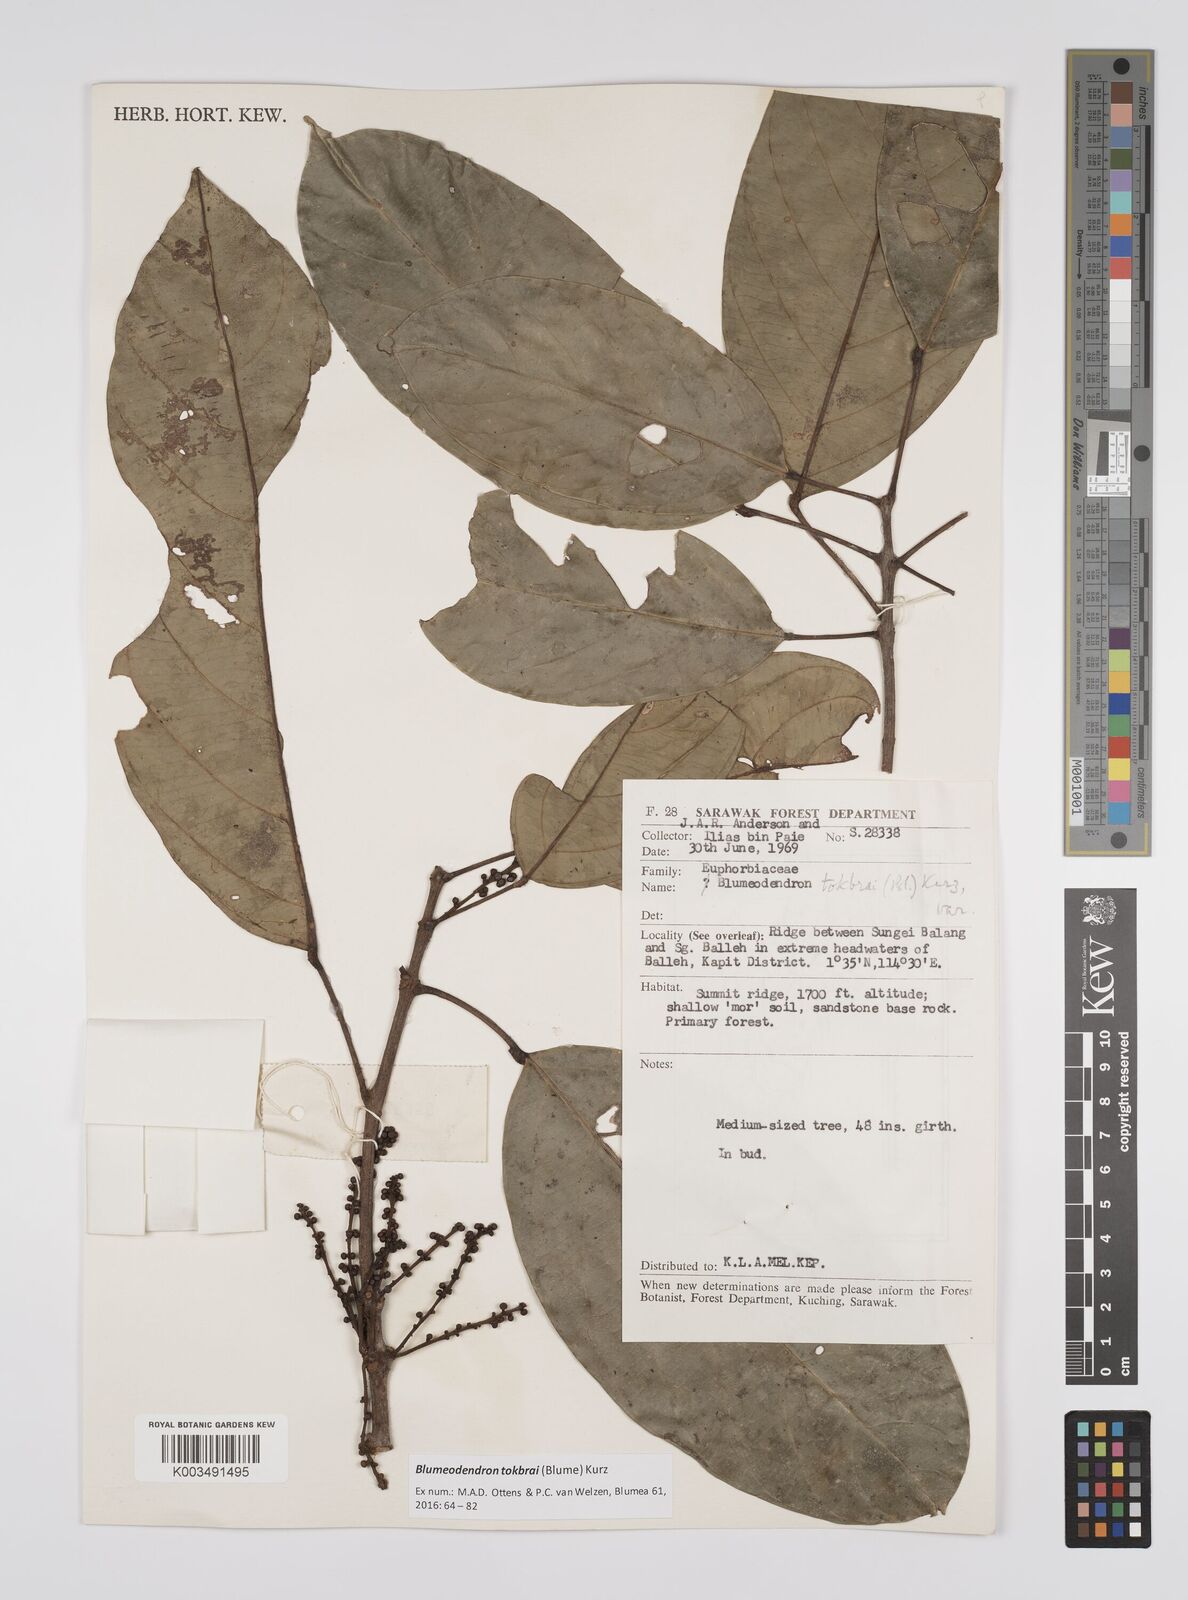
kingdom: Plantae
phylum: Tracheophyta
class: Magnoliopsida
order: Malpighiales
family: Euphorbiaceae
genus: Blumeodendron
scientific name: Blumeodendron tokbrai
